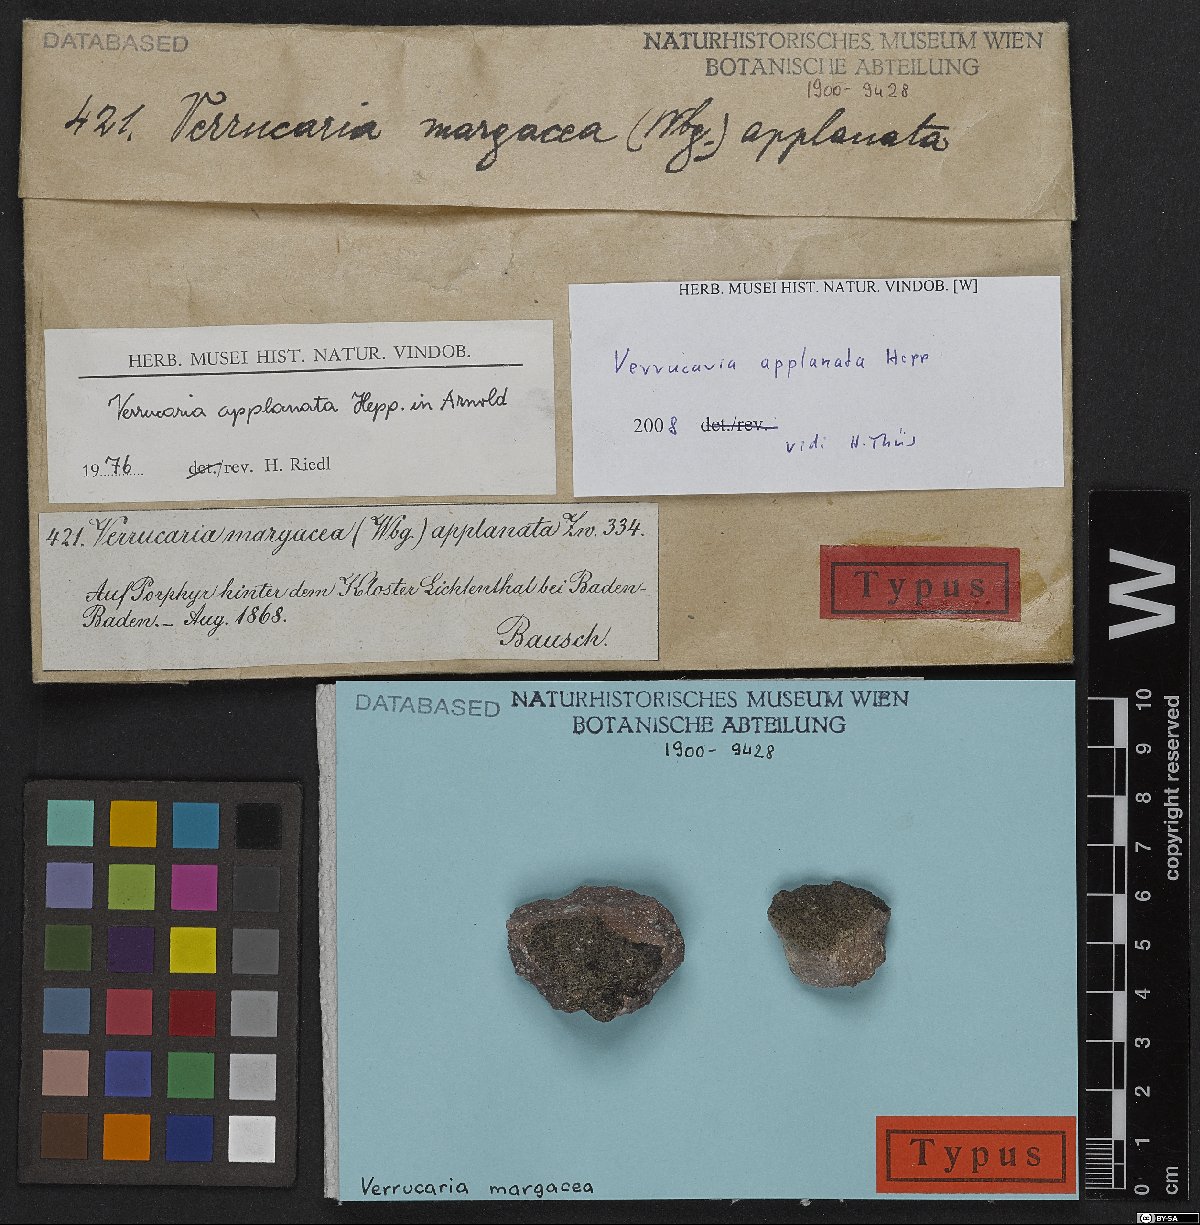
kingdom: Fungi
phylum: Ascomycota
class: Eurotiomycetes
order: Verrucariales
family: Verrucariaceae
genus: Verrucaria
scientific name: Verrucaria margacea
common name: Inundated speck lichen
